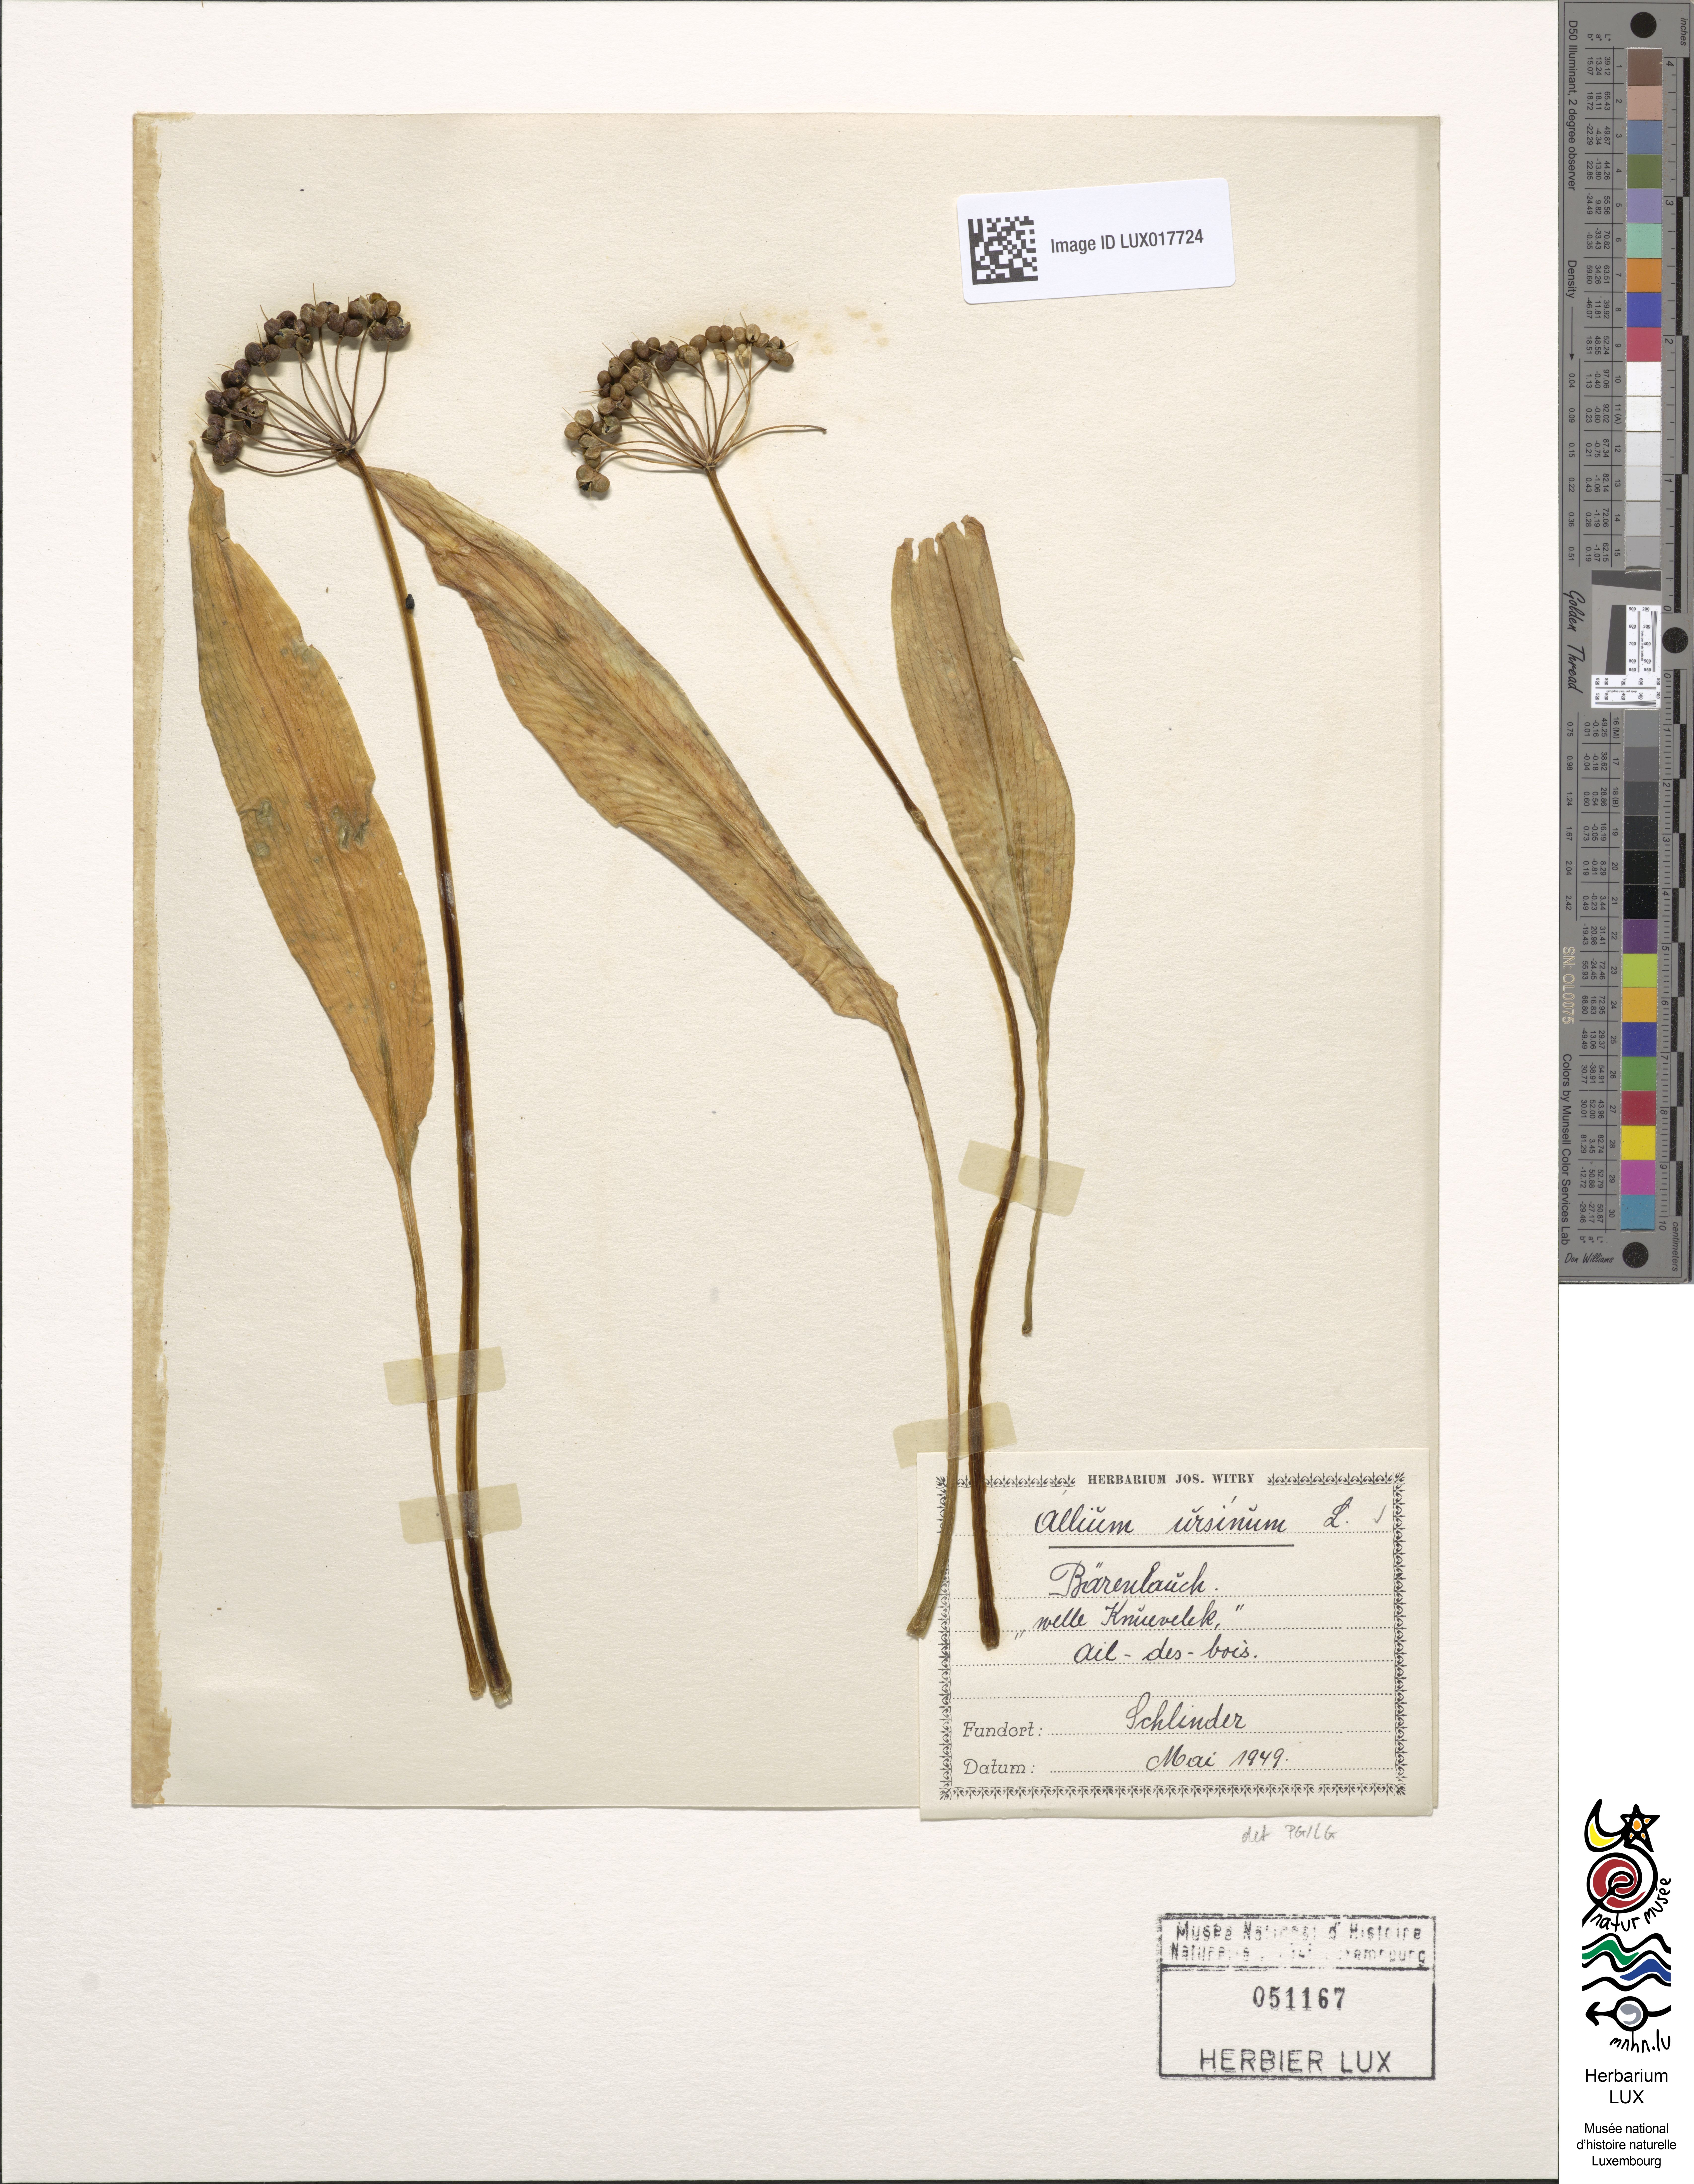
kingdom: Plantae
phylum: Tracheophyta
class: Liliopsida
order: Asparagales
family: Amaryllidaceae
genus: Allium
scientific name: Allium ursinum
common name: Ramsons
